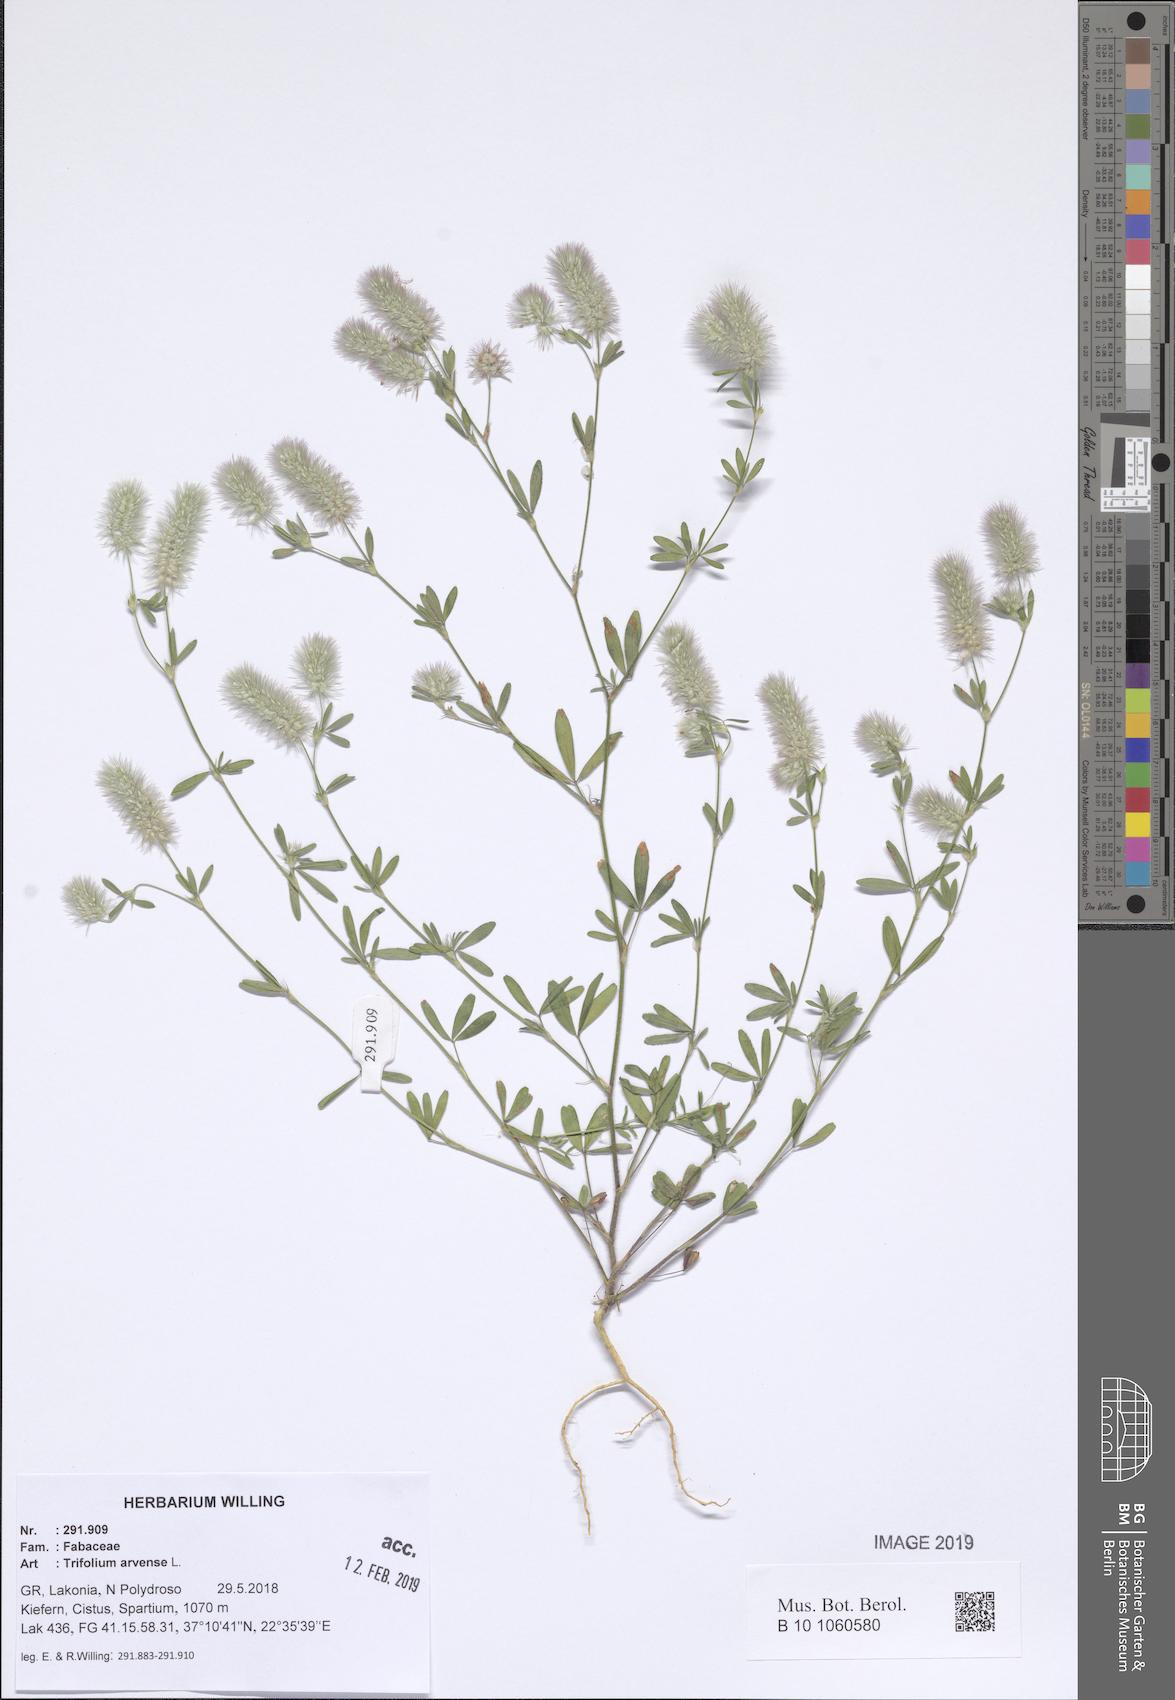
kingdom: Plantae
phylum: Tracheophyta
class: Magnoliopsida
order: Fabales
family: Fabaceae
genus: Trifolium
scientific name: Trifolium arvense
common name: Hare's-foot clover
